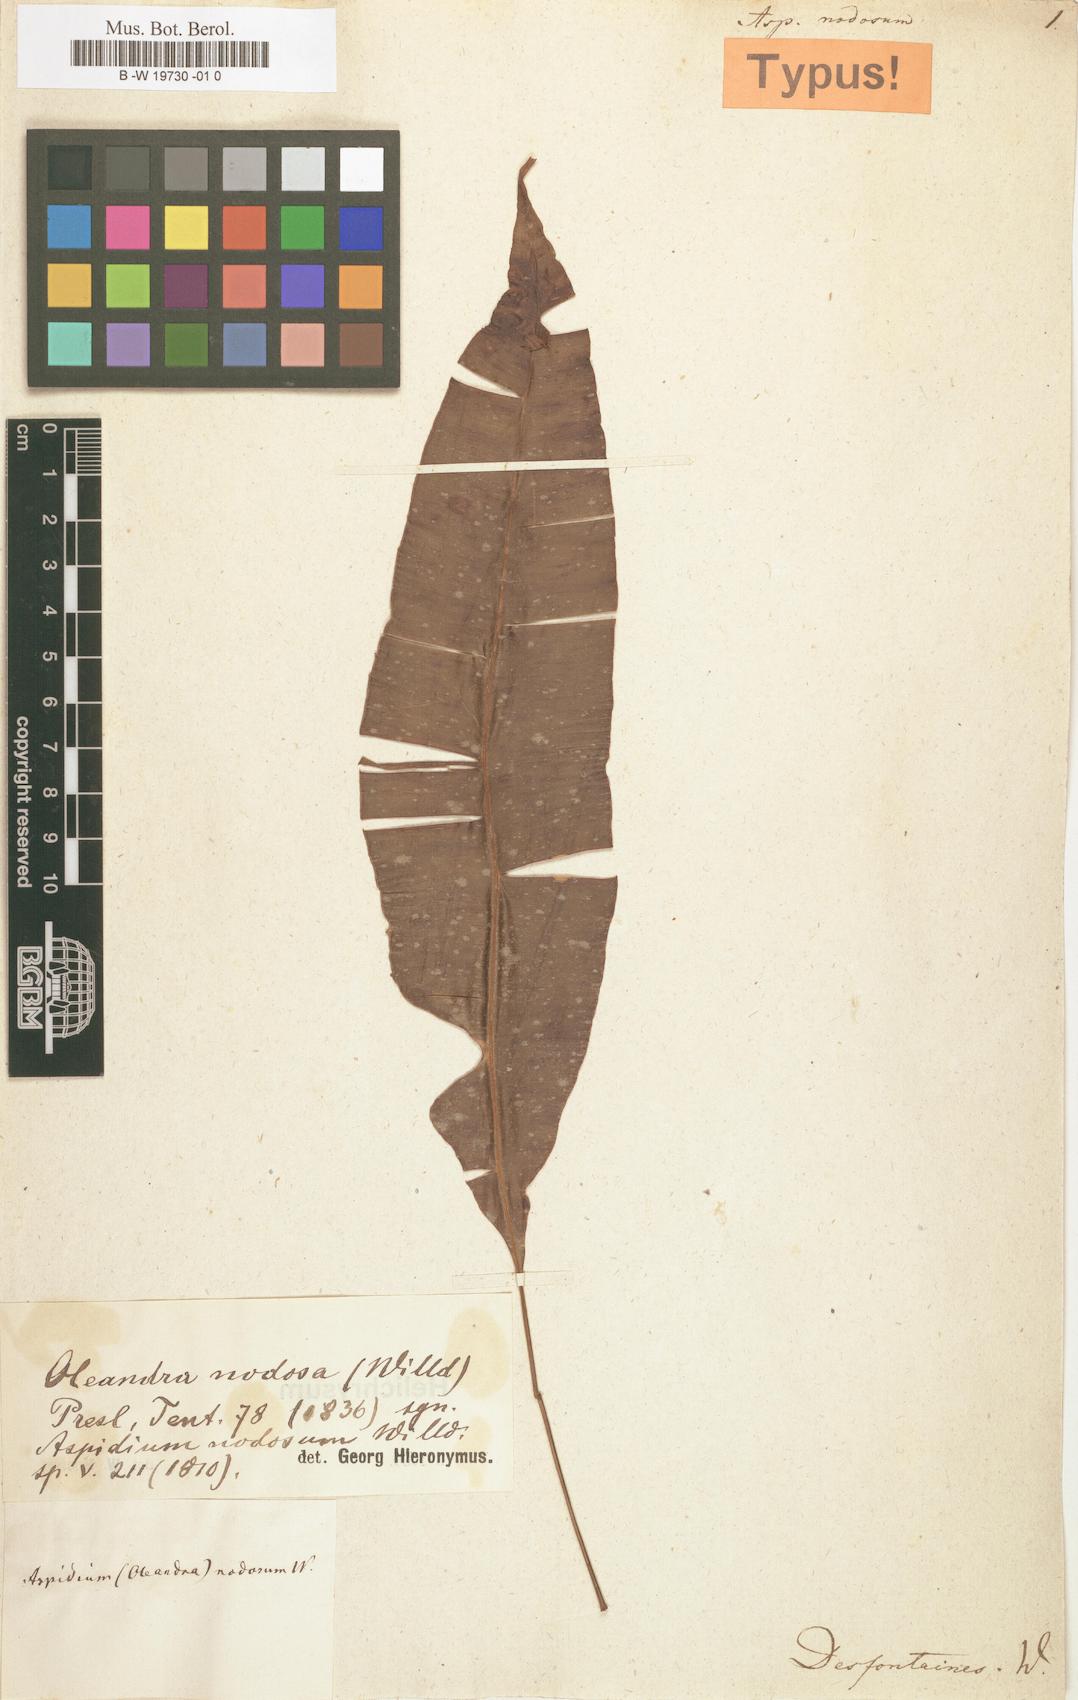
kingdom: Plantae
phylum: Tracheophyta
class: Polypodiopsida
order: Polypodiales
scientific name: Polypodiales
